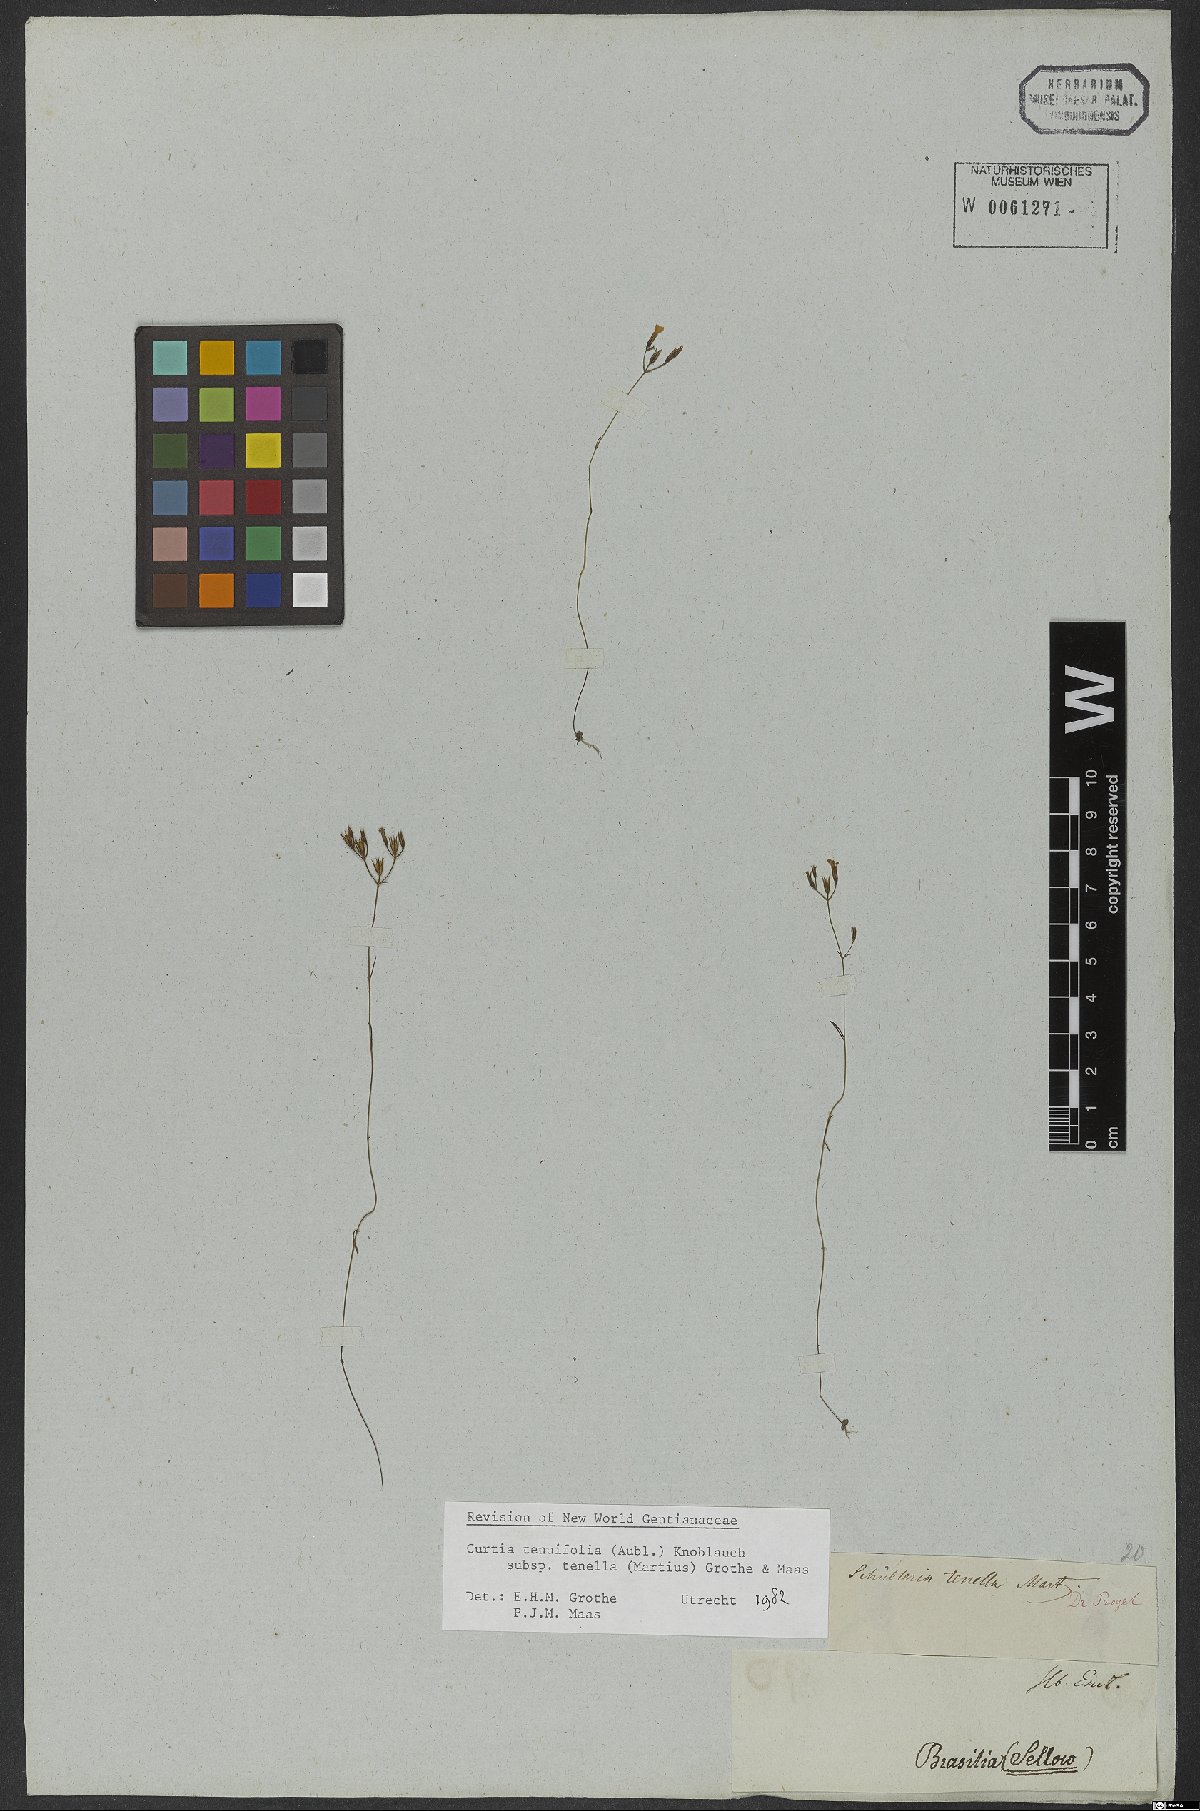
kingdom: Plantae
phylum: Tracheophyta
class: Magnoliopsida
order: Gentianales
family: Gentianaceae
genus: Curtia
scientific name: Curtia tenella
